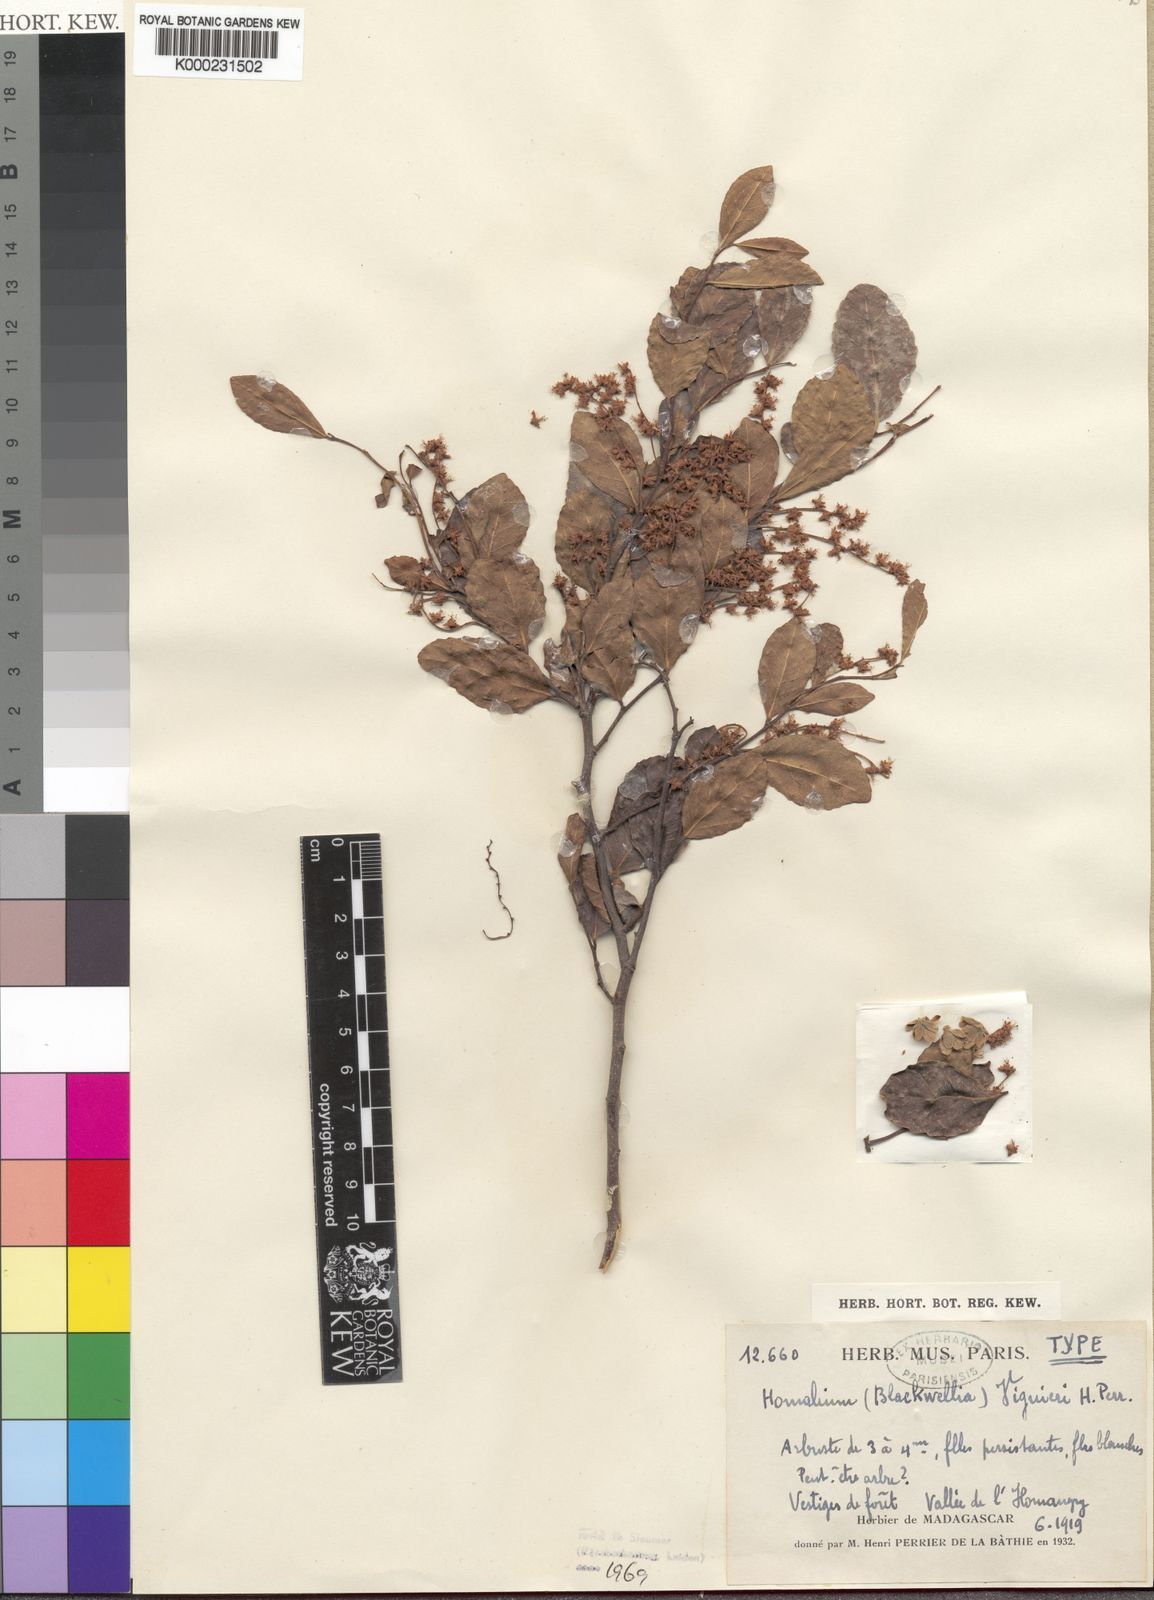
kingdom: Plantae
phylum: Tracheophyta
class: Magnoliopsida
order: Malpighiales
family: Salicaceae
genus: Homalium
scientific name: Homalium viguieri
